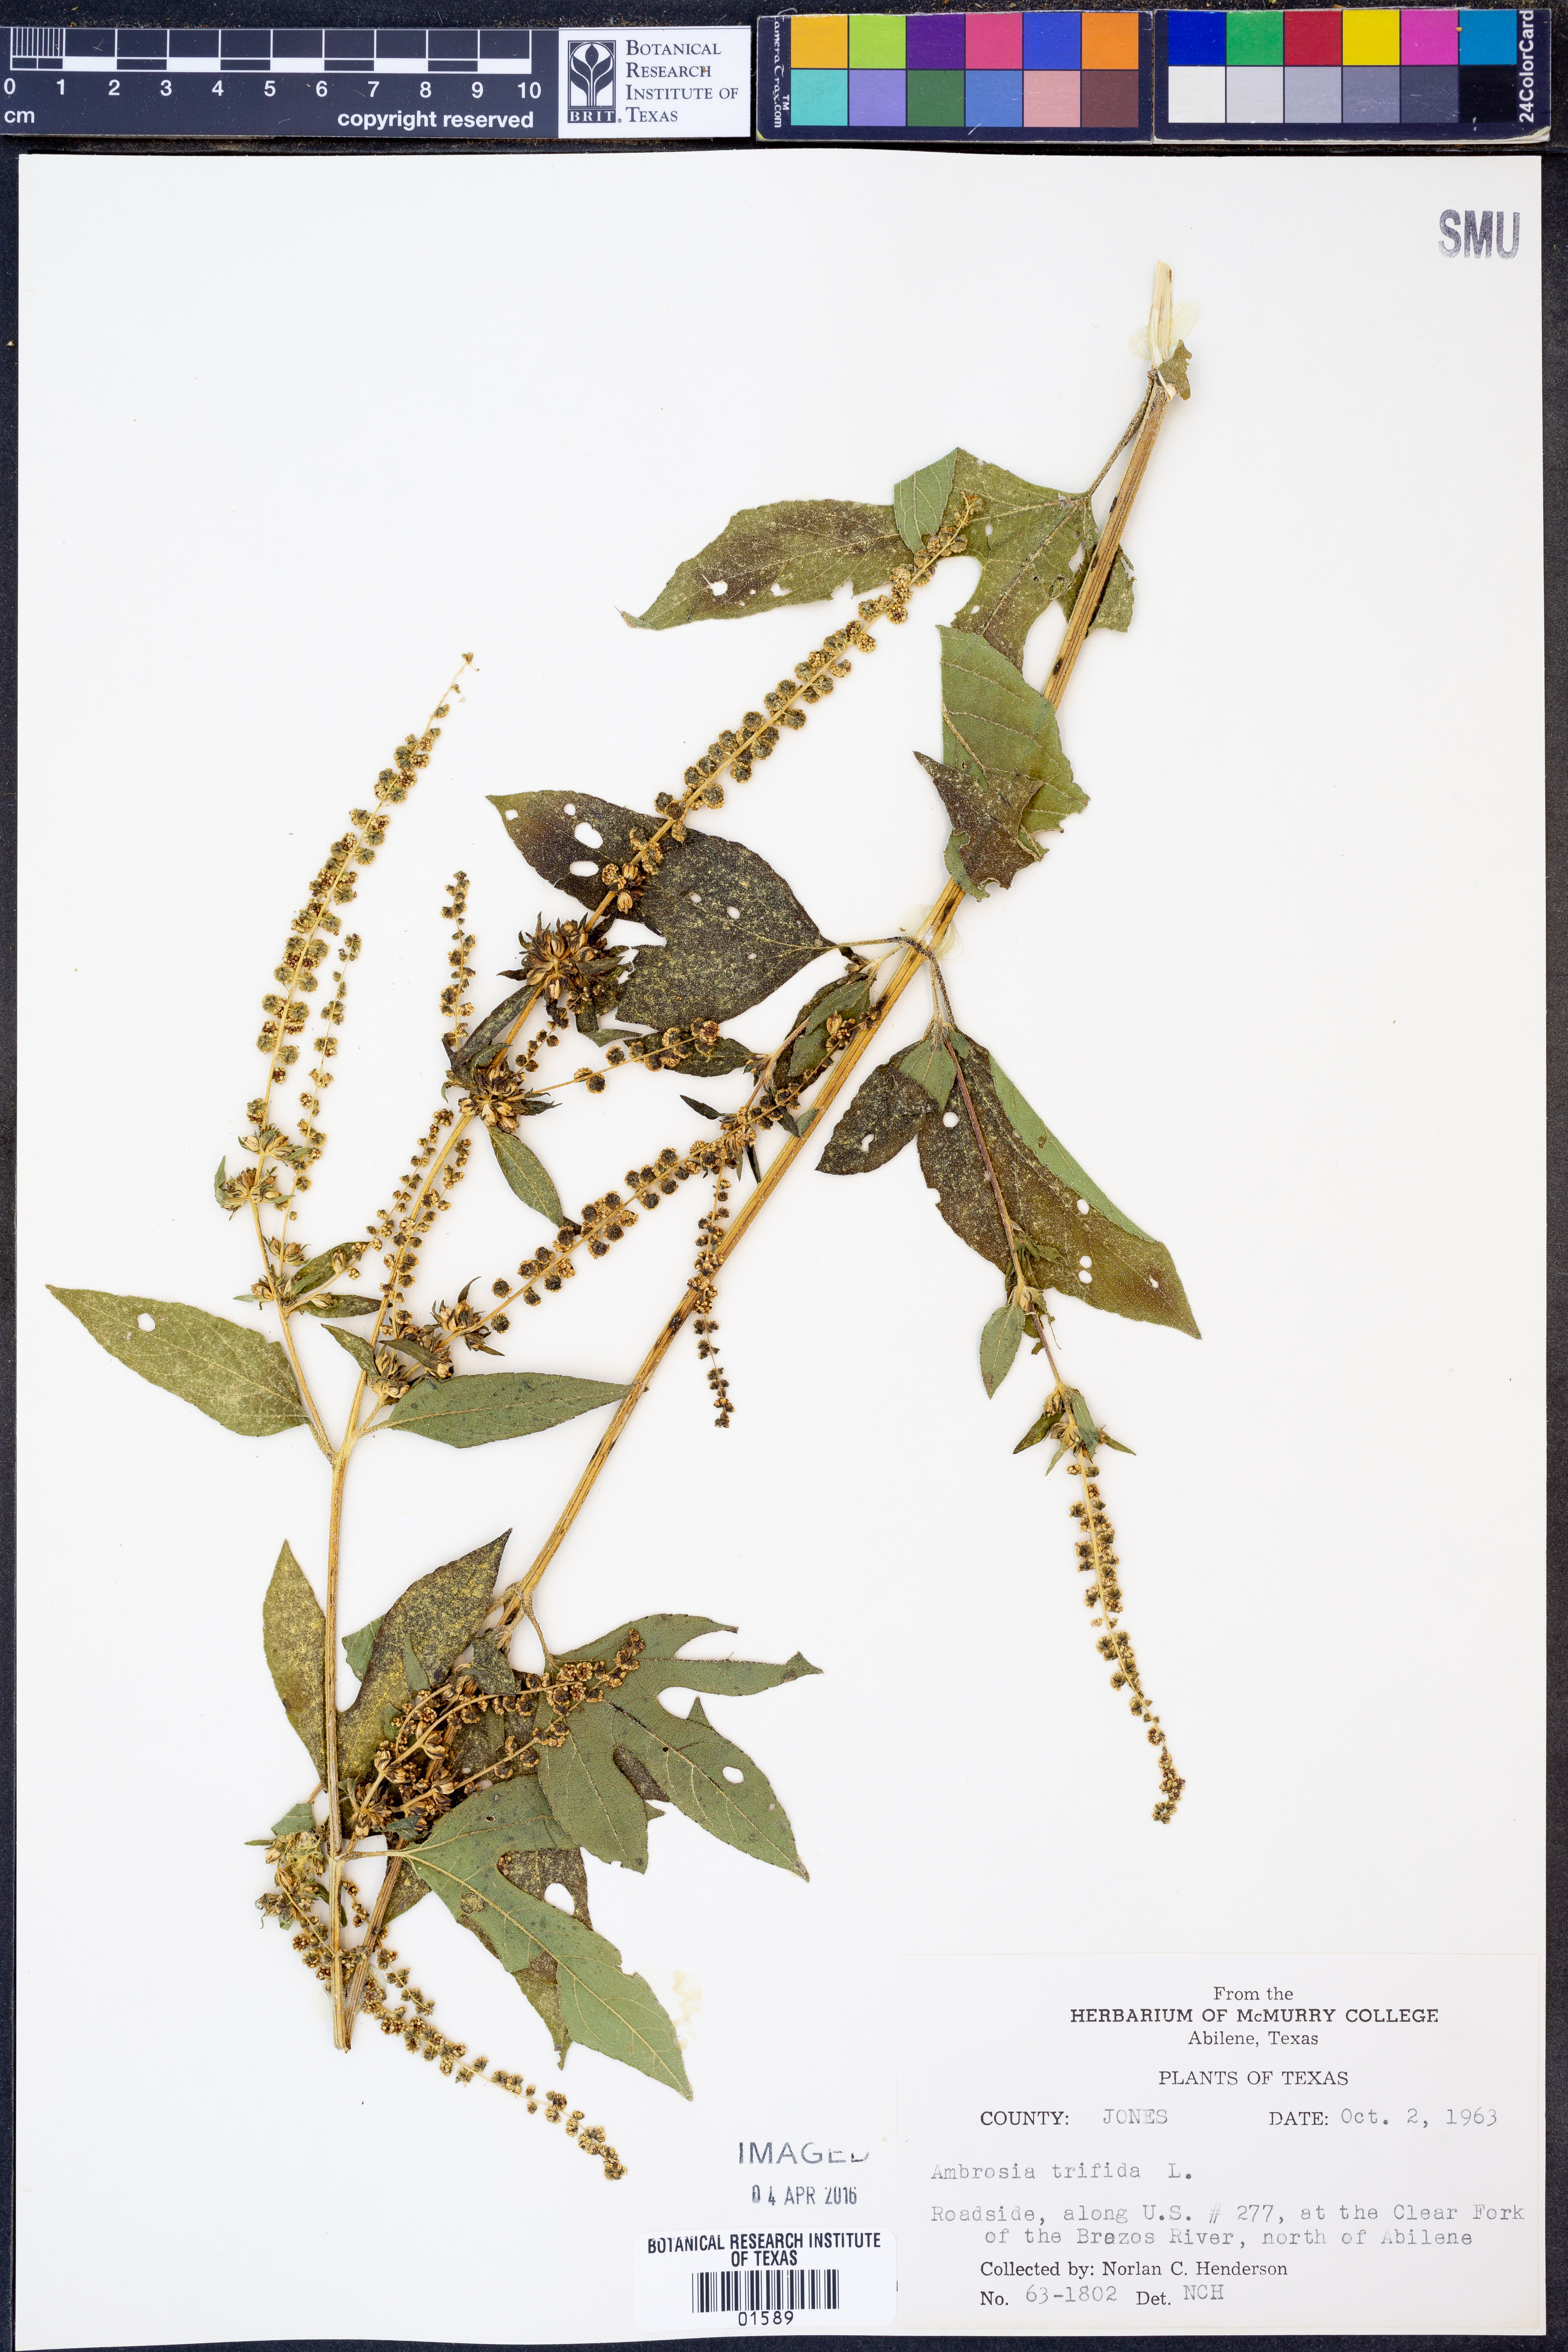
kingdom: Plantae
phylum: Tracheophyta
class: Magnoliopsida
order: Asterales
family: Asteraceae
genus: Ambrosia
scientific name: Ambrosia trifida
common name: Giant ragweed
